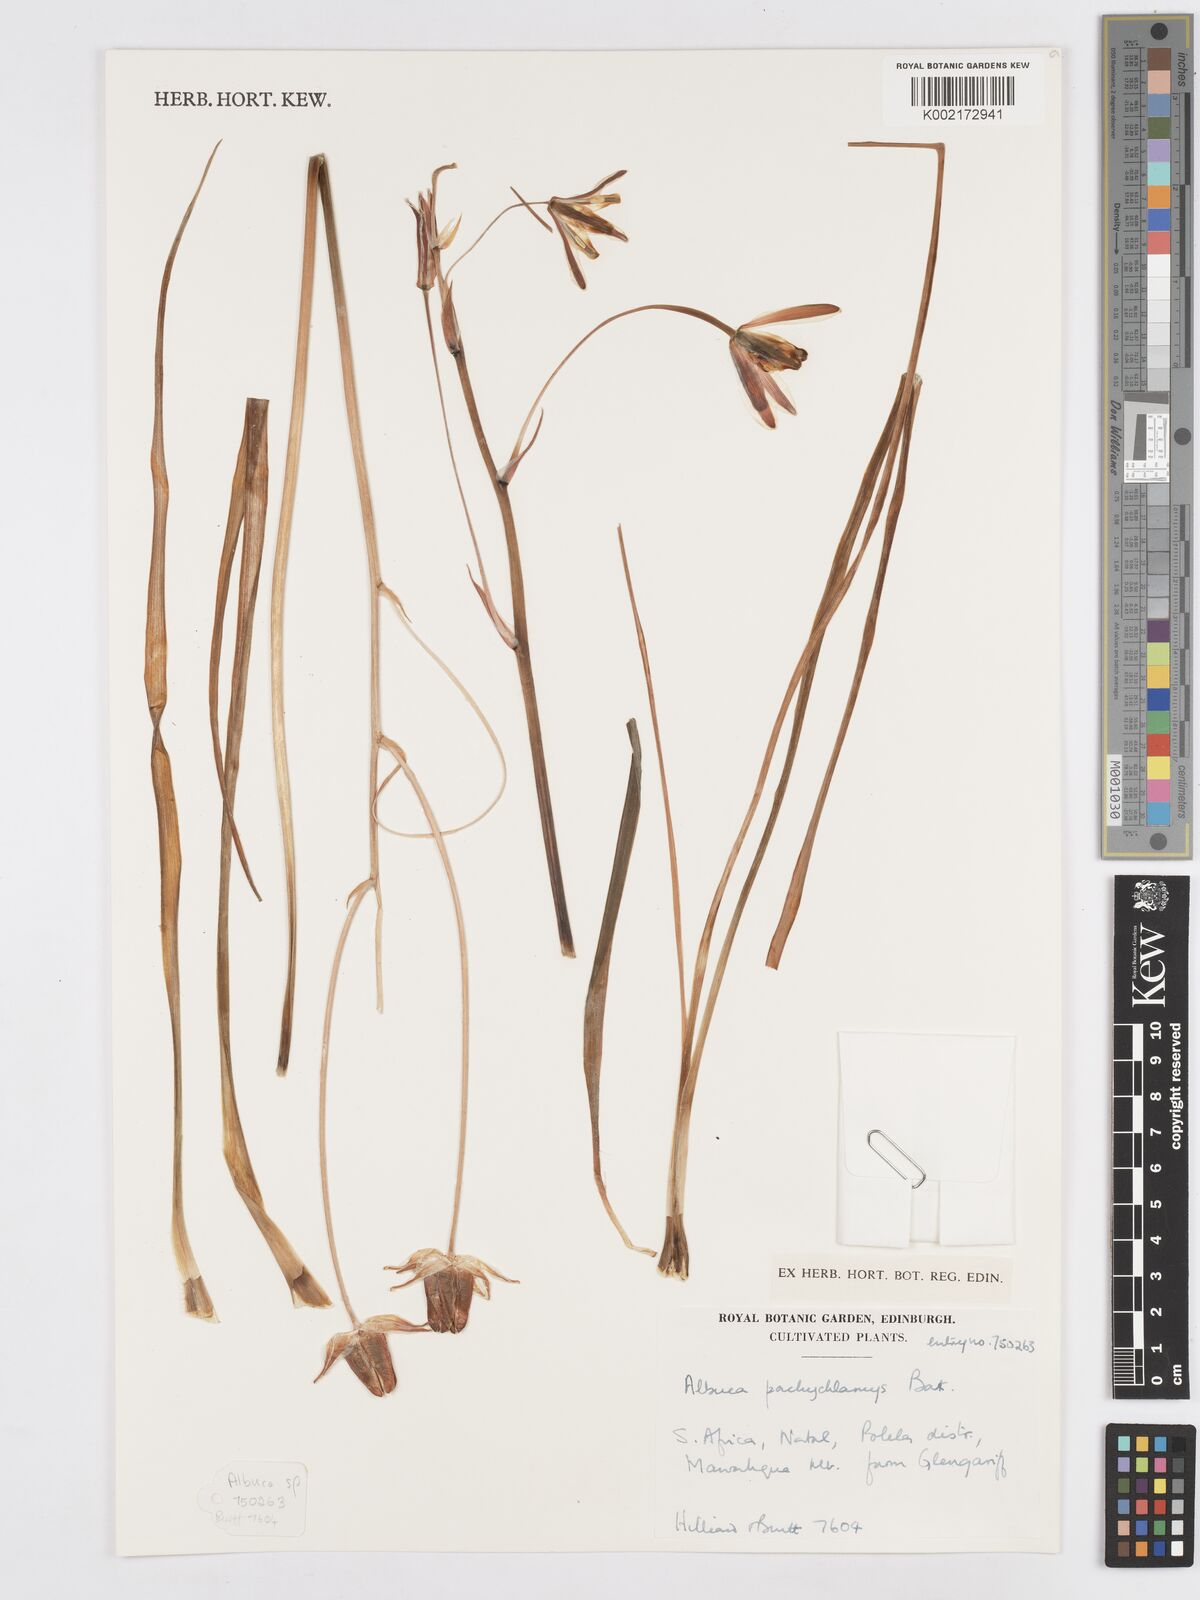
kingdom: Plantae
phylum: Tracheophyta
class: Liliopsida
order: Asparagales
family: Asparagaceae
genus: Albuca
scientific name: Albuca setosa
